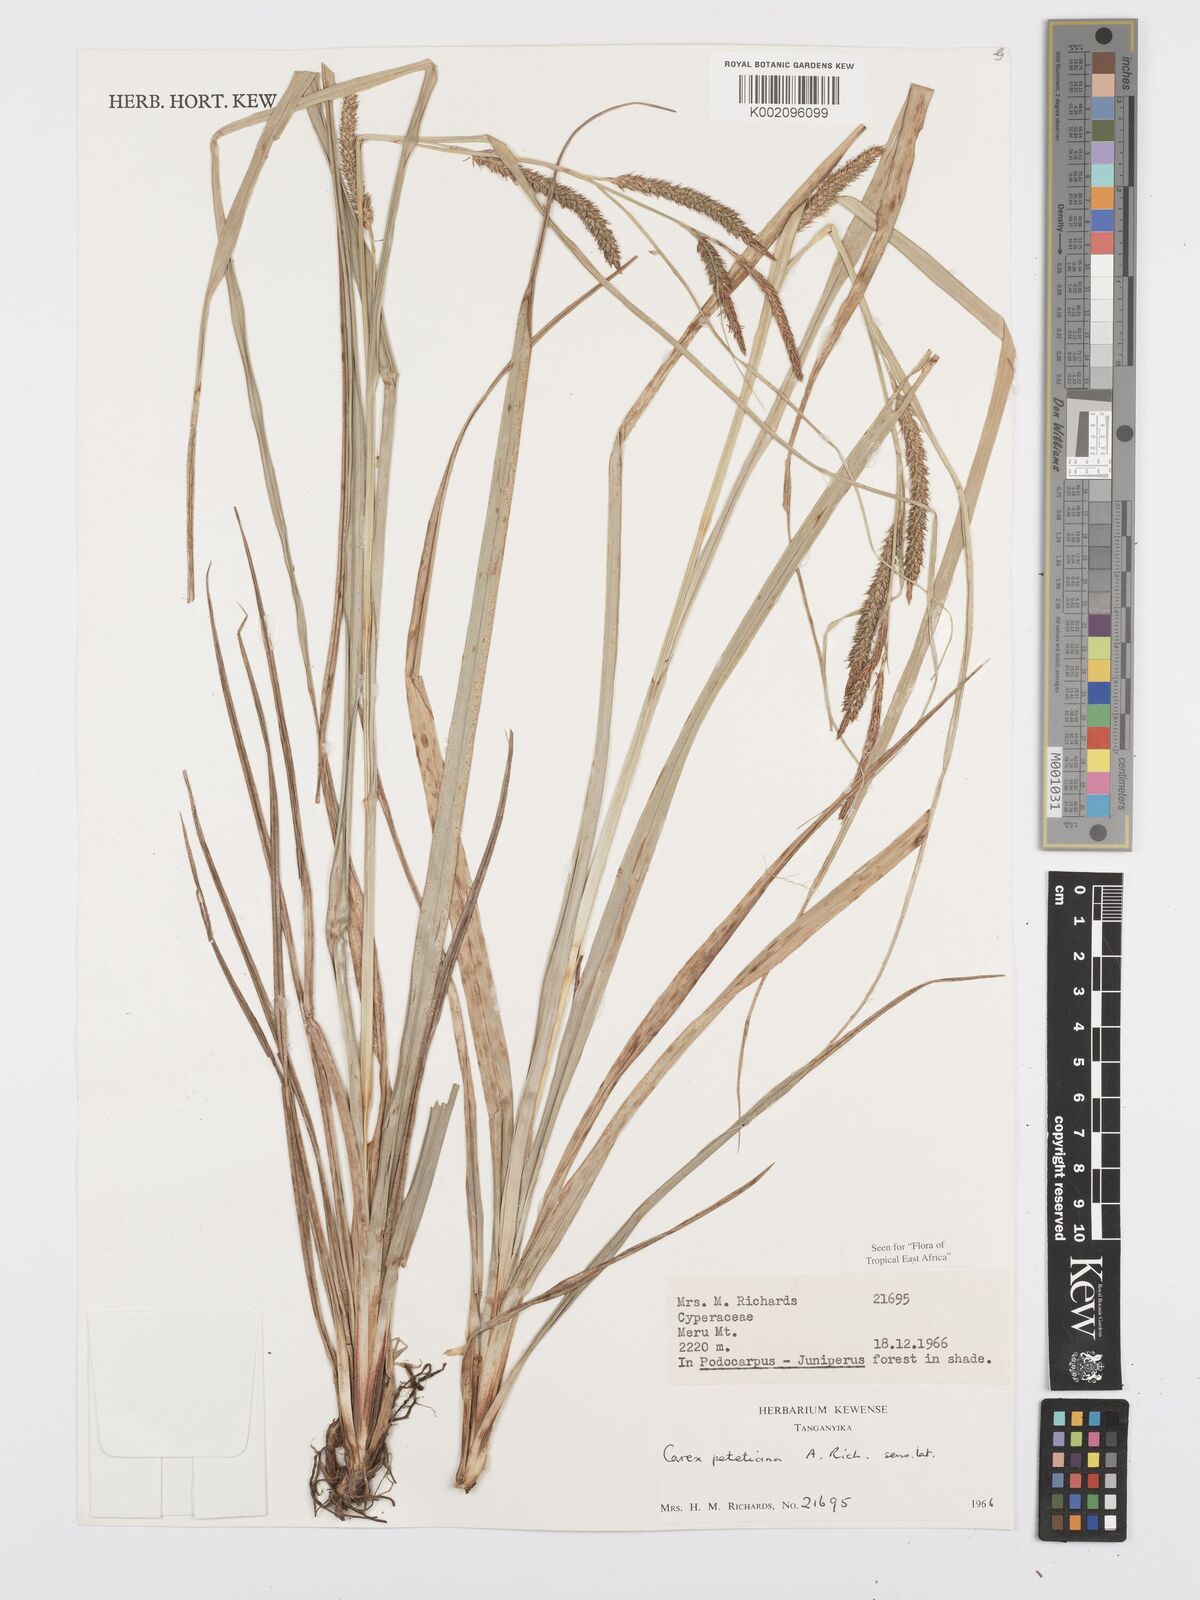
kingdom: Plantae
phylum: Tracheophyta
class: Liliopsida
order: Poales
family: Cyperaceae
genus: Carex
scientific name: Carex petitiana
